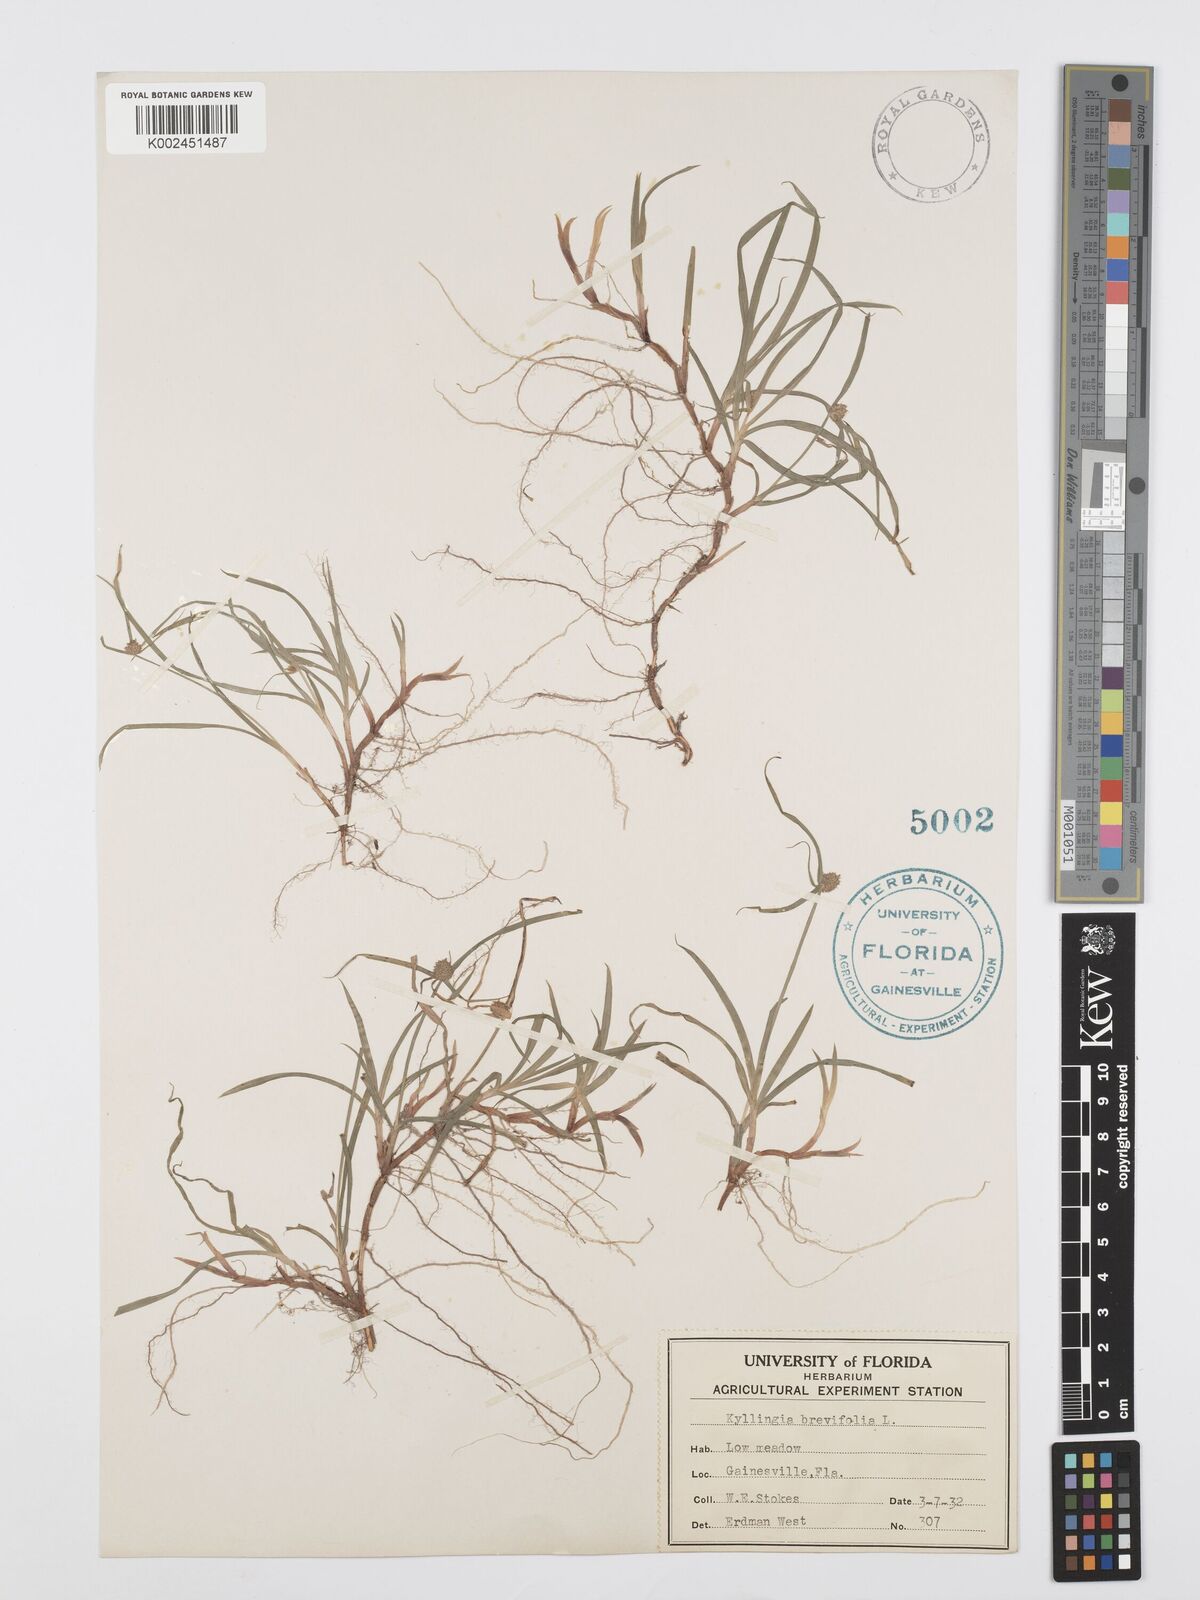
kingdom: Plantae
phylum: Tracheophyta
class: Liliopsida
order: Poales
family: Cyperaceae
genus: Cyperus
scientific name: Cyperus brevifolius
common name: Globe kyllinga
